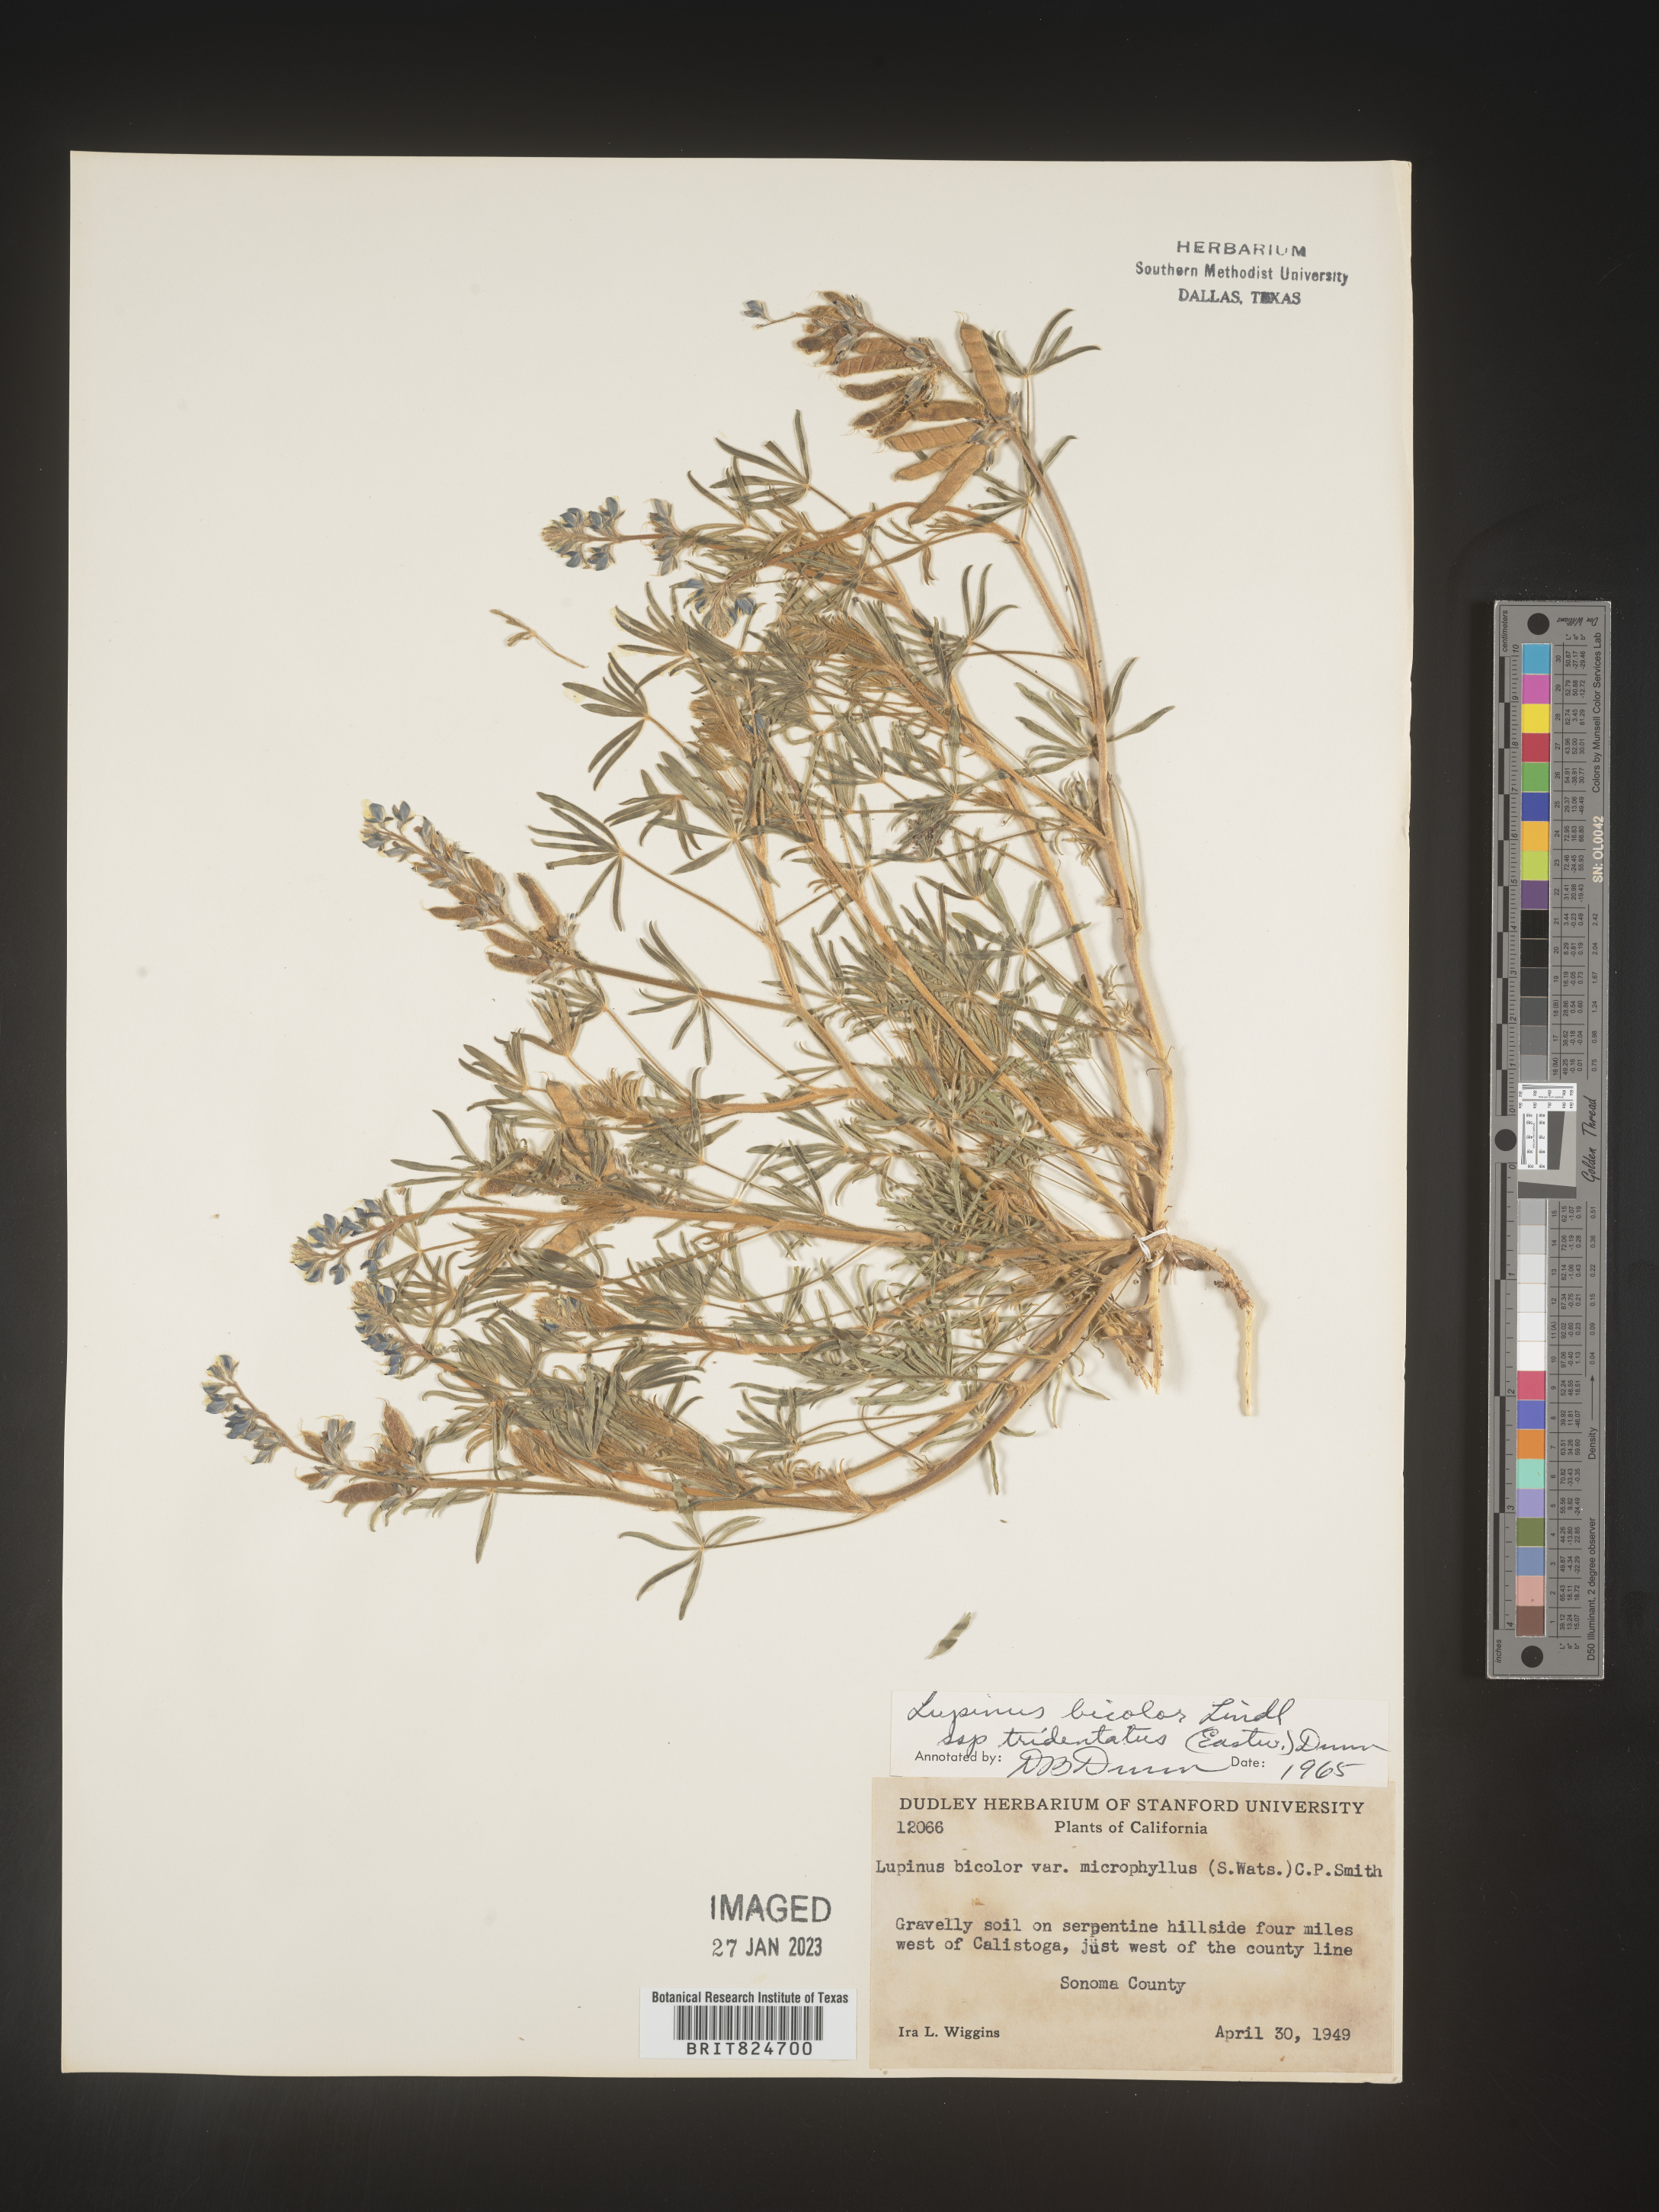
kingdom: Plantae
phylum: Tracheophyta
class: Magnoliopsida
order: Fabales
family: Fabaceae
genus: Lupinus
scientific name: Lupinus bicolor
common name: Miniature lupine
